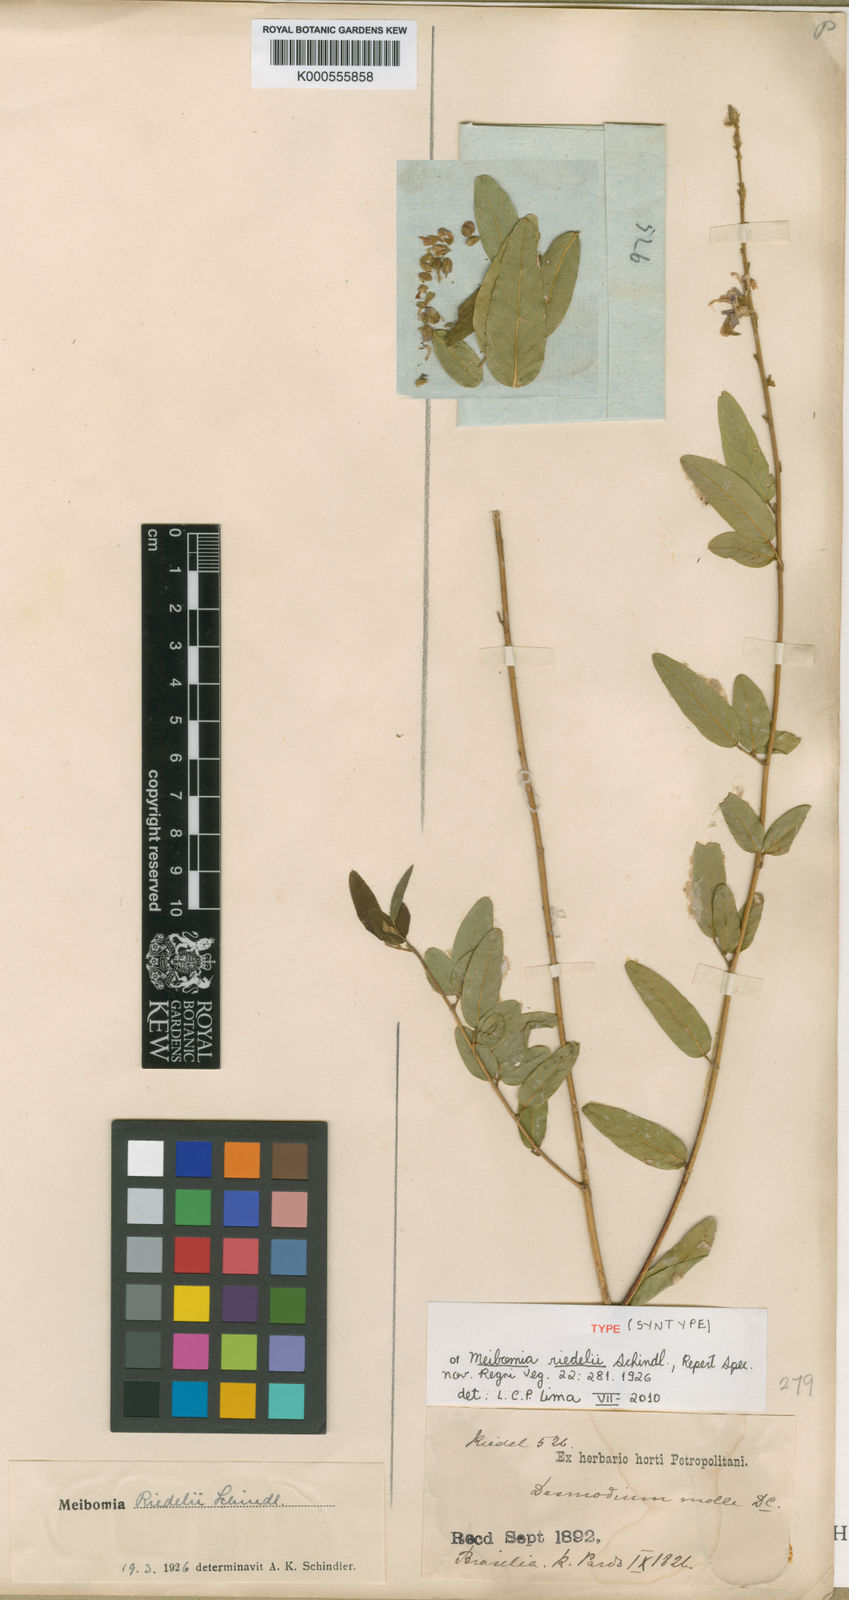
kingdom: Plantae
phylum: Tracheophyta
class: Magnoliopsida
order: Fabales
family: Fabaceae
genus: Desmodium
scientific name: Desmodium riedelii
